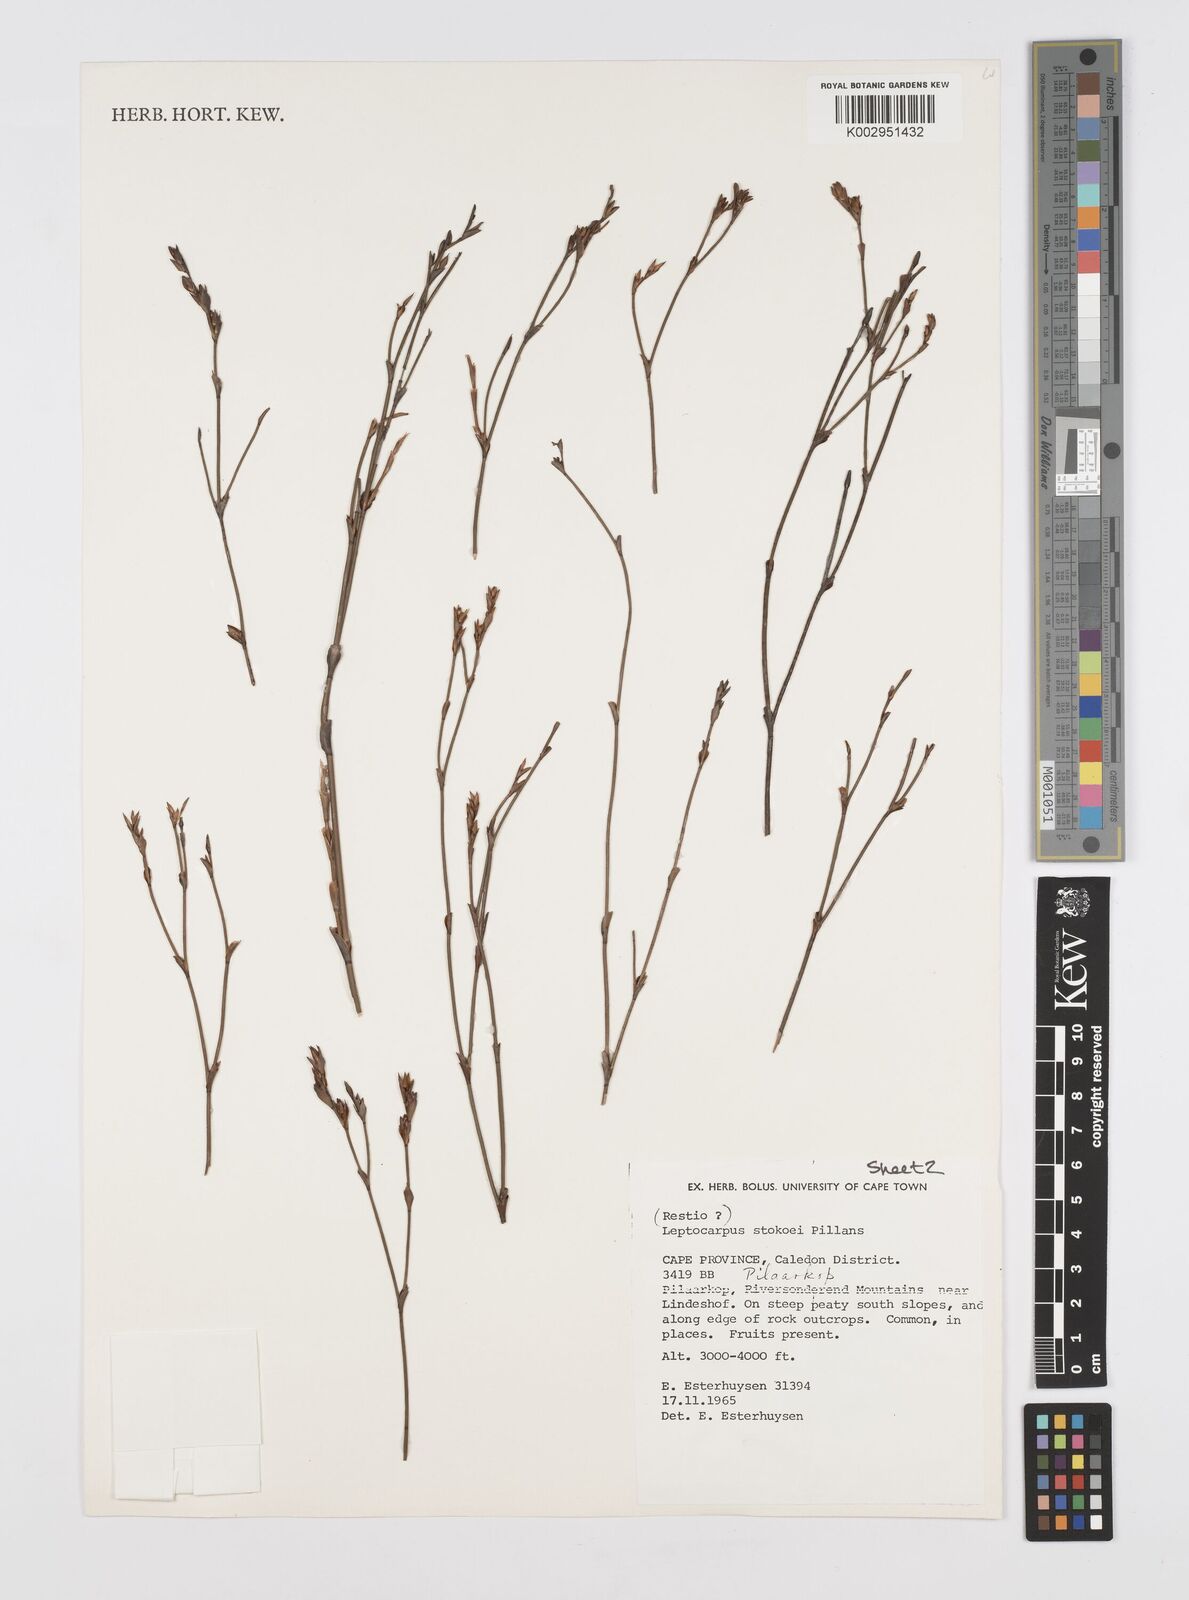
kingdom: Plantae
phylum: Tracheophyta
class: Liliopsida
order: Poales
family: Restionaceae
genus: Restio
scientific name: Restio pillansii
